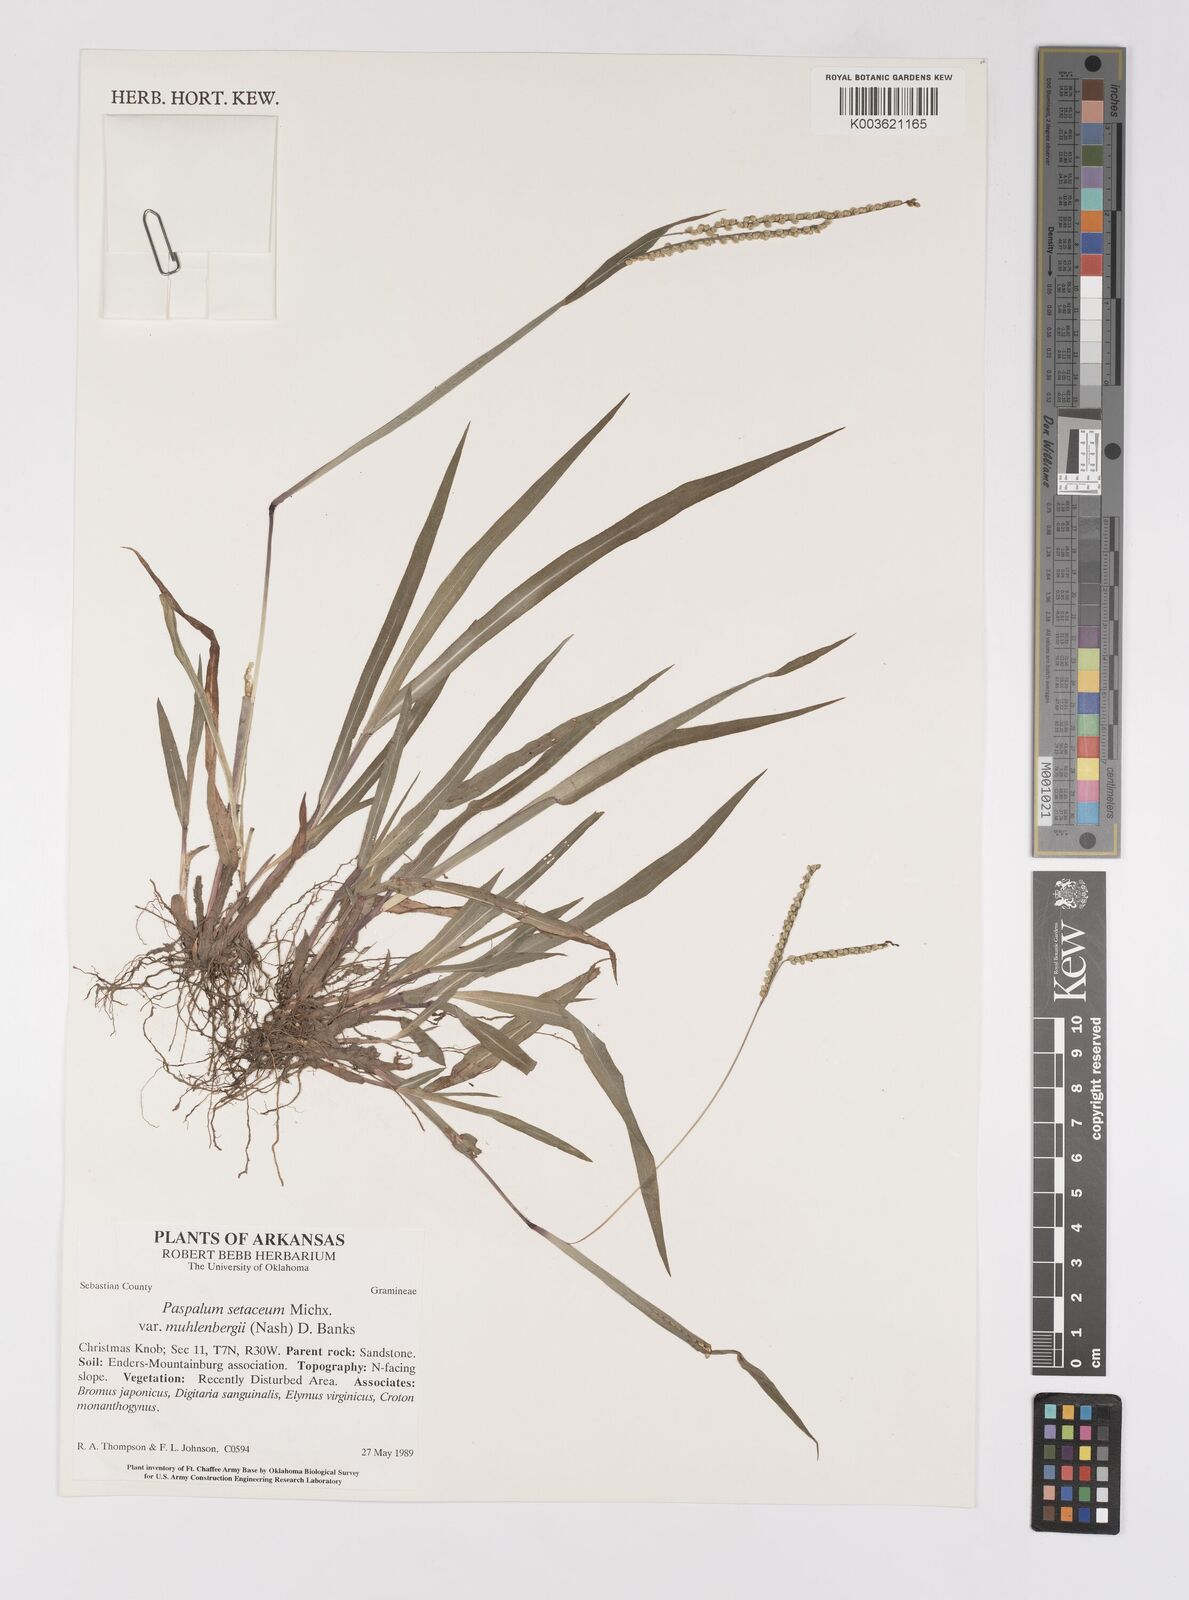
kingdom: Plantae
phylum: Tracheophyta
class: Liliopsida
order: Poales
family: Poaceae
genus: Paspalum
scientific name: Paspalum setaceum
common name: Slender paspalum
